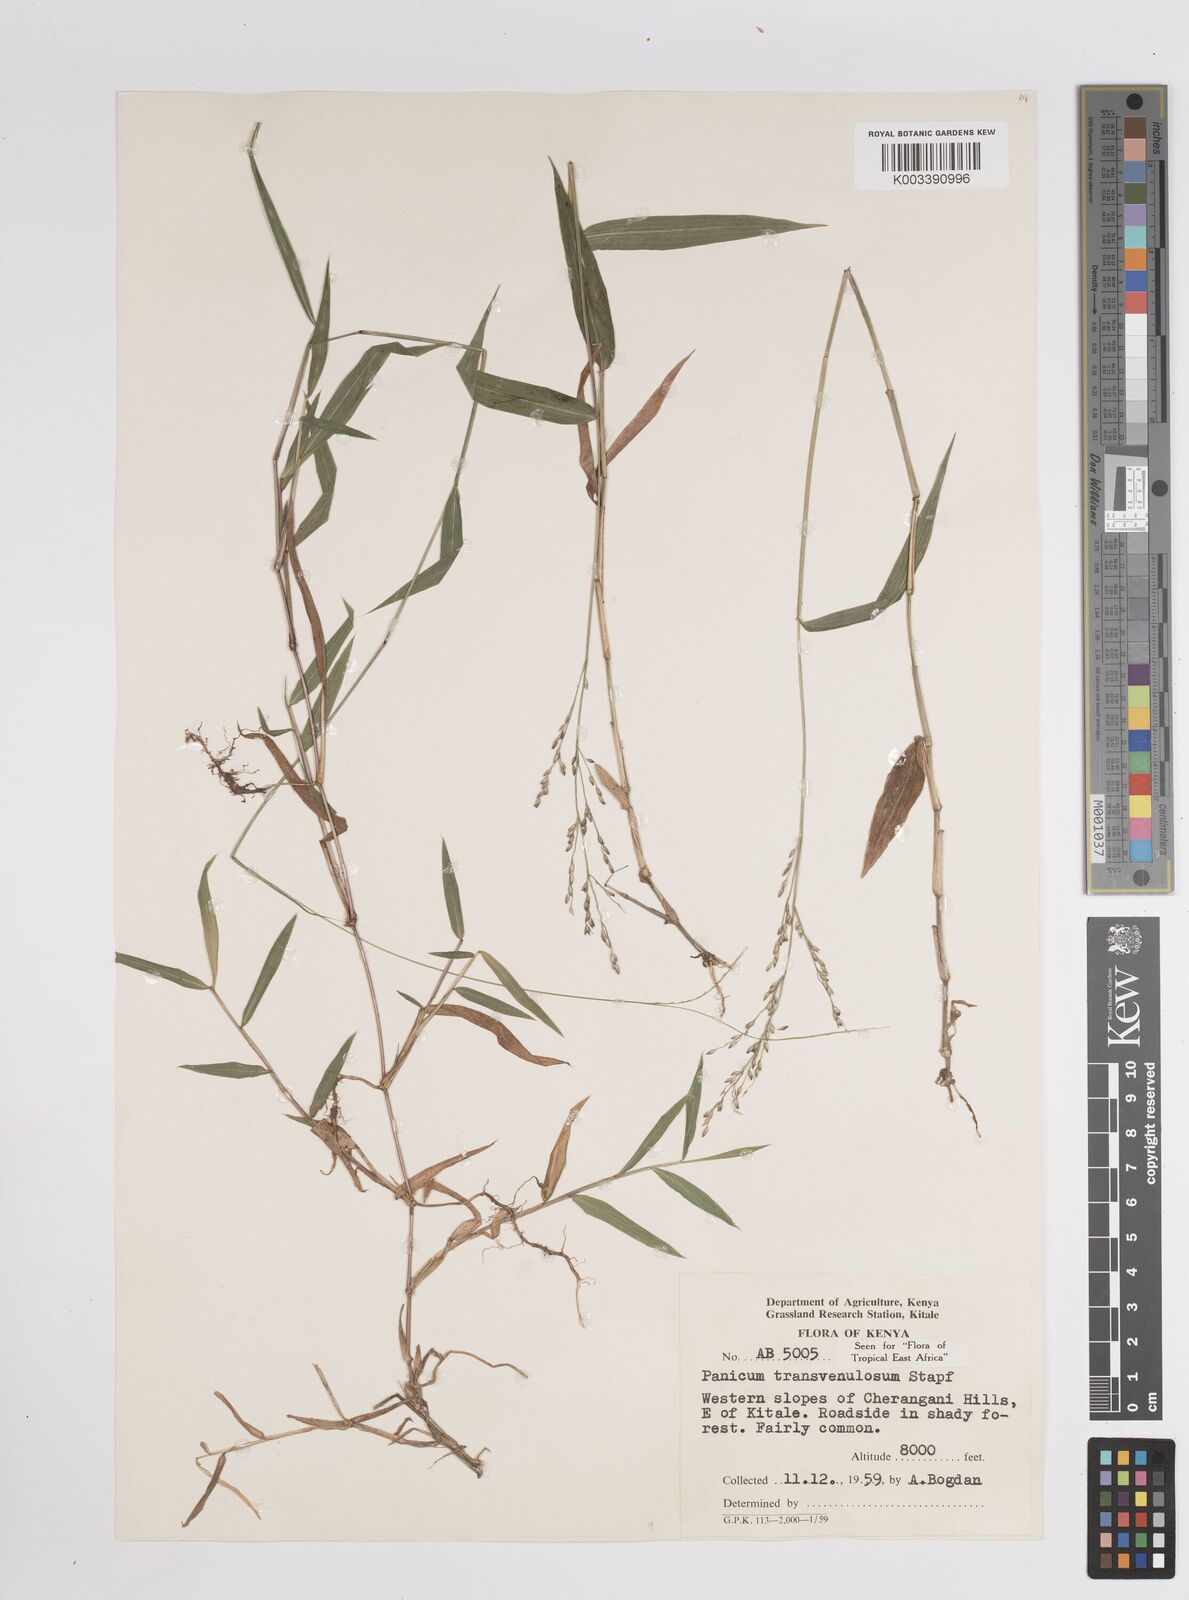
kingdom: Plantae
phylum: Tracheophyta
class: Liliopsida
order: Poales
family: Poaceae
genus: Panicum
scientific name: Panicum monticola
